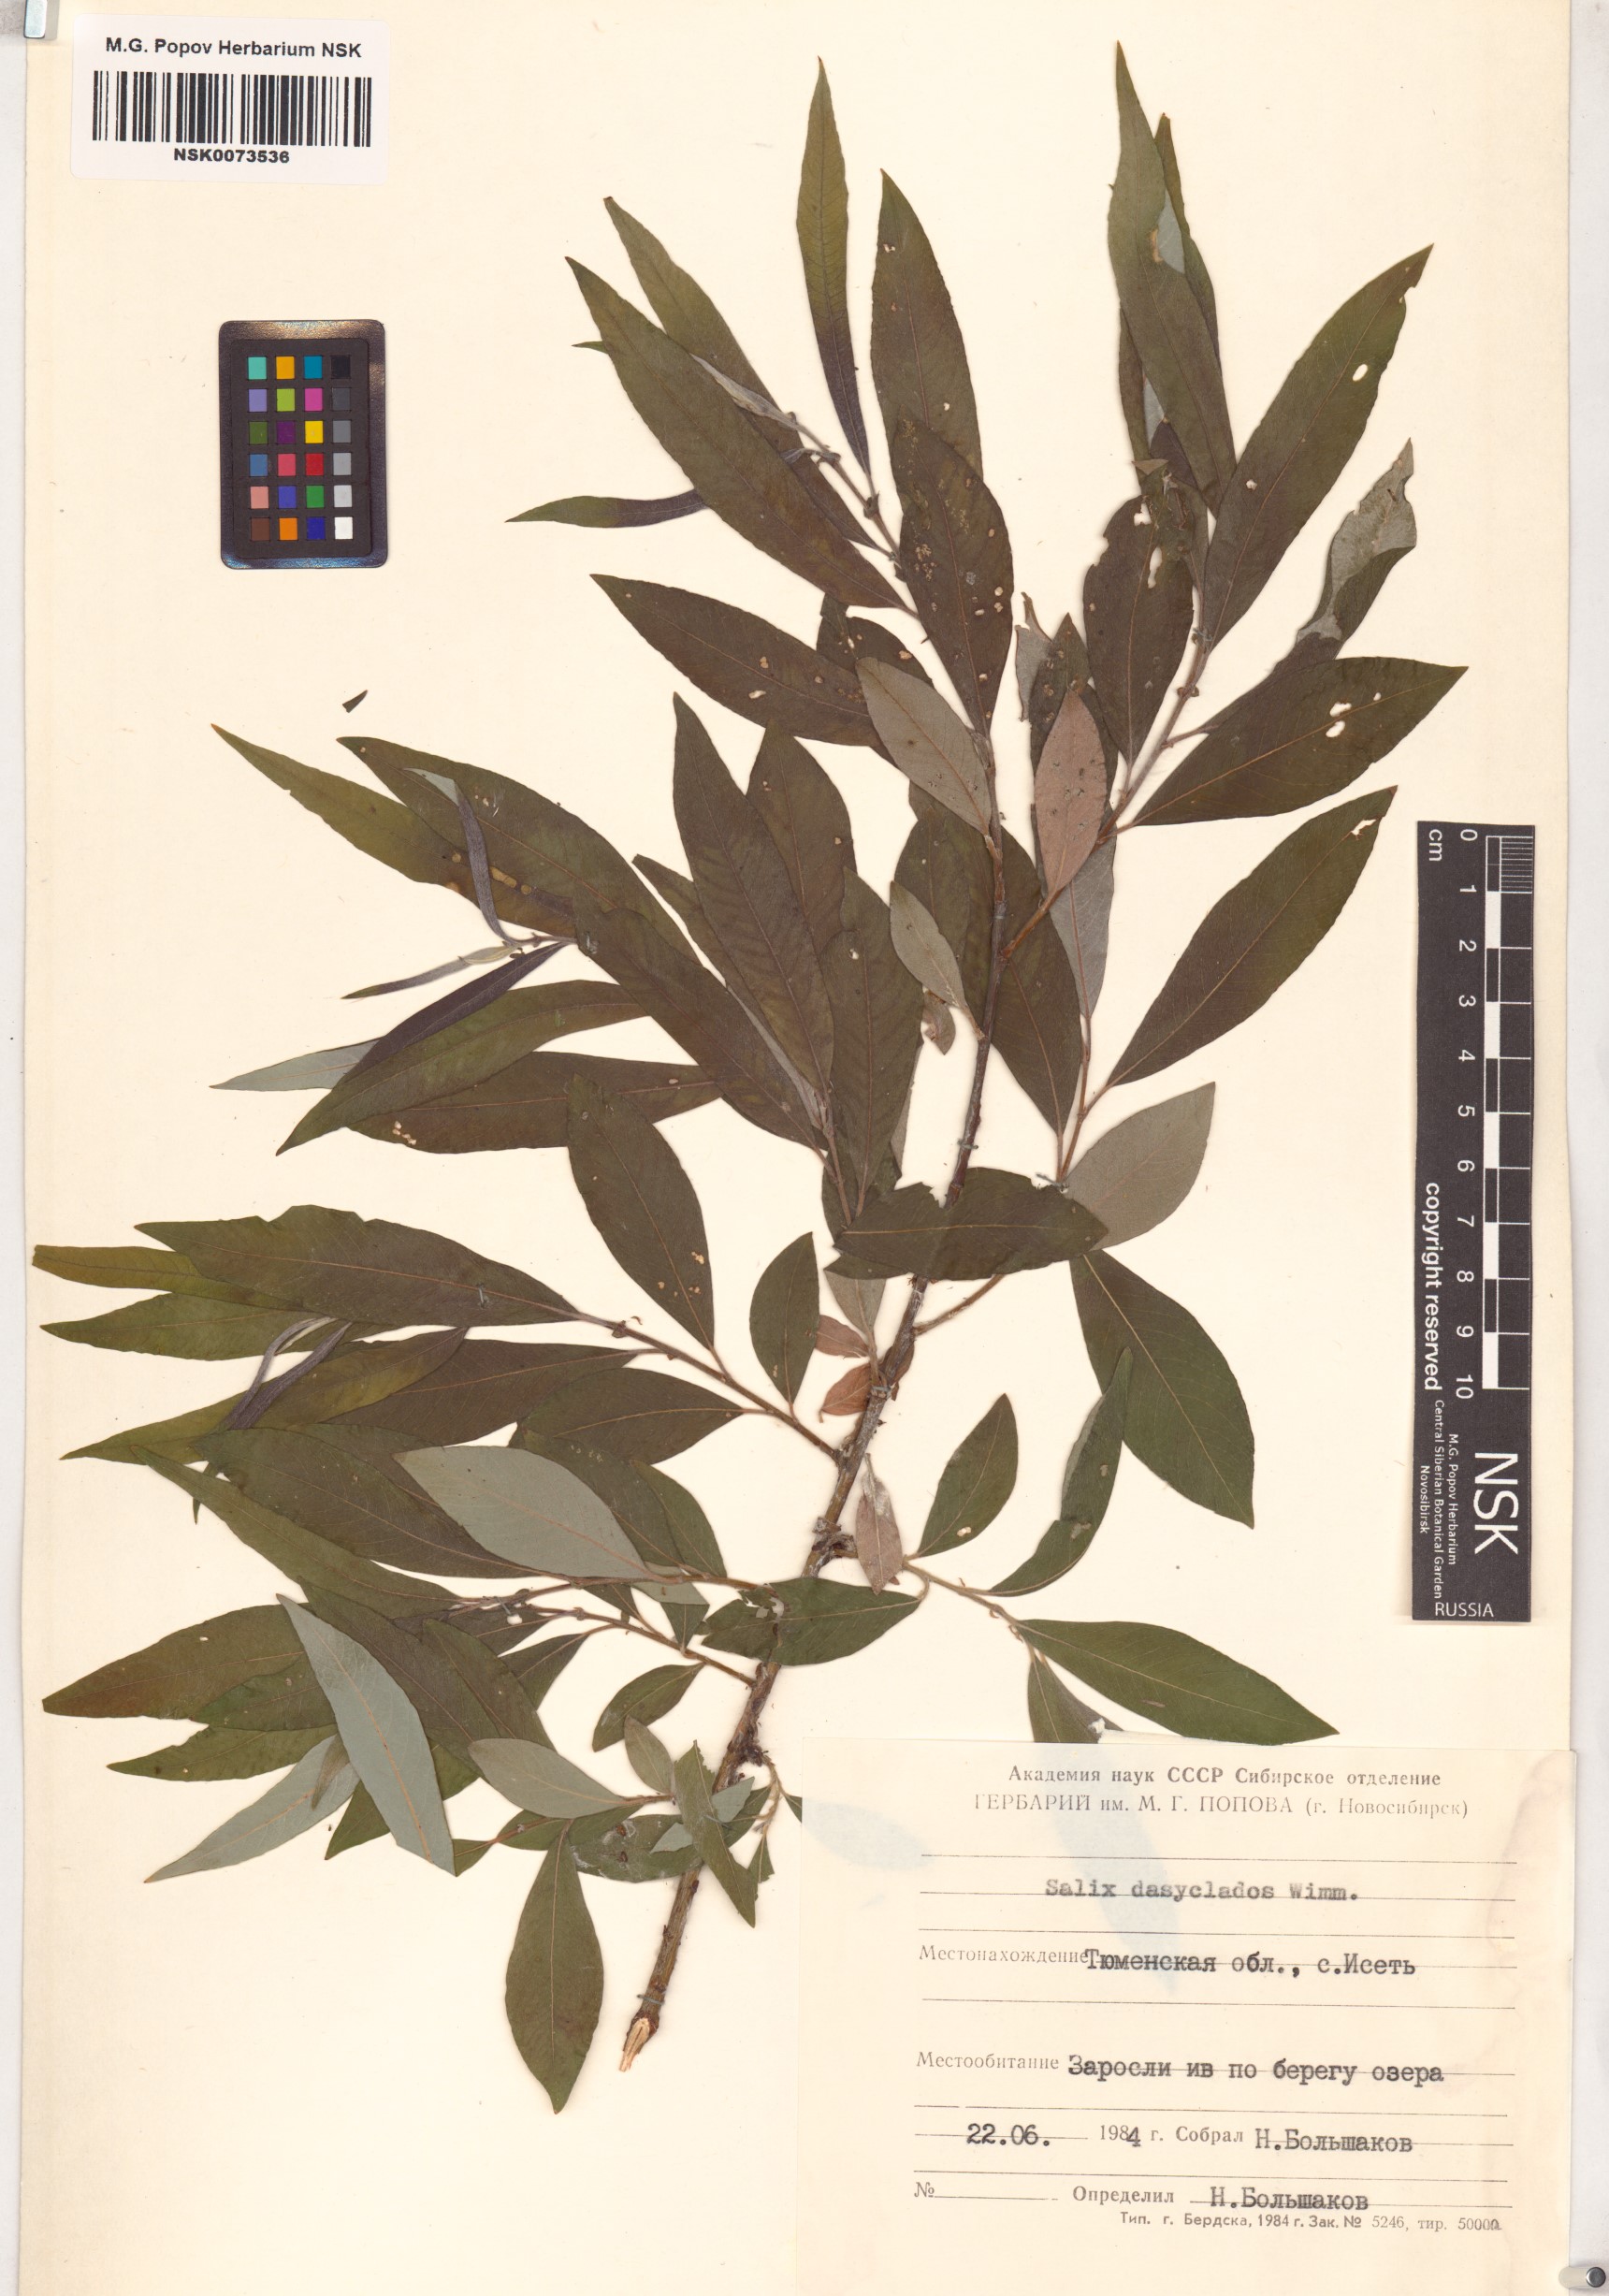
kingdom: Plantae
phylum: Tracheophyta
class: Magnoliopsida
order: Malpighiales
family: Salicaceae
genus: Salix
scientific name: Salix gmelinii
